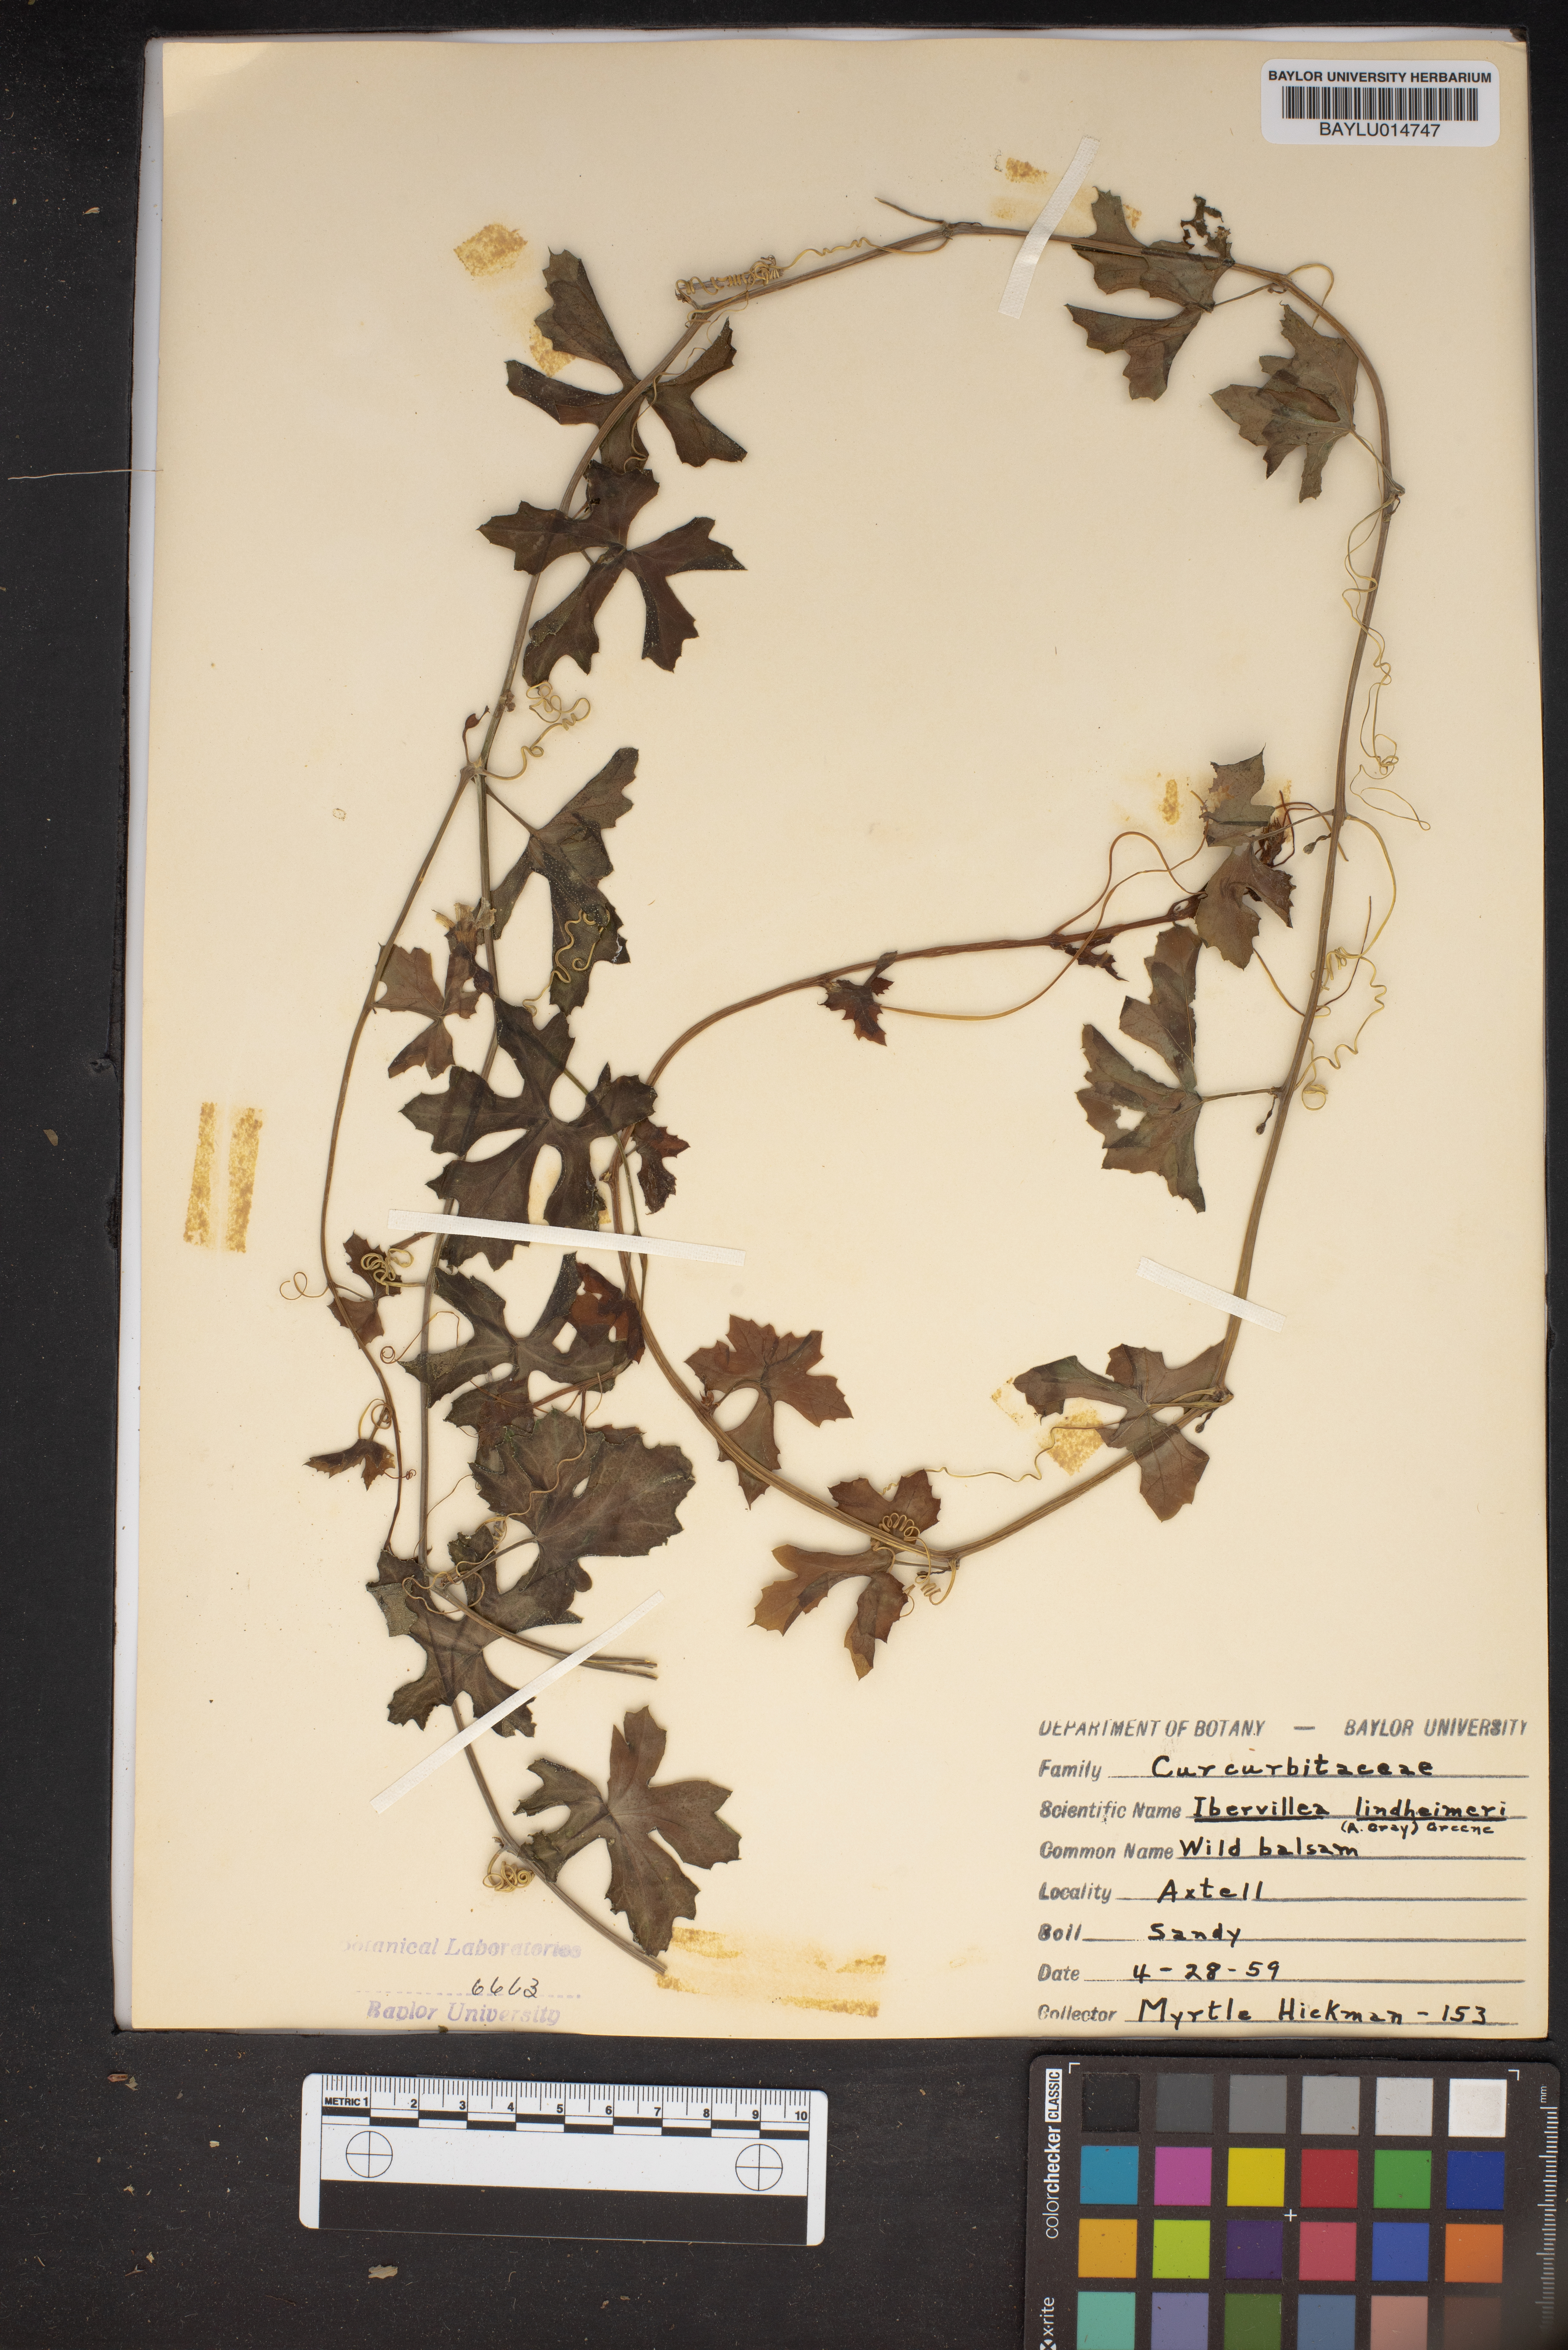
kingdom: Plantae
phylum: Tracheophyta
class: Magnoliopsida
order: Cucurbitales
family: Cucurbitaceae
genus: Ibervillea
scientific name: Ibervillea lindheimeri
